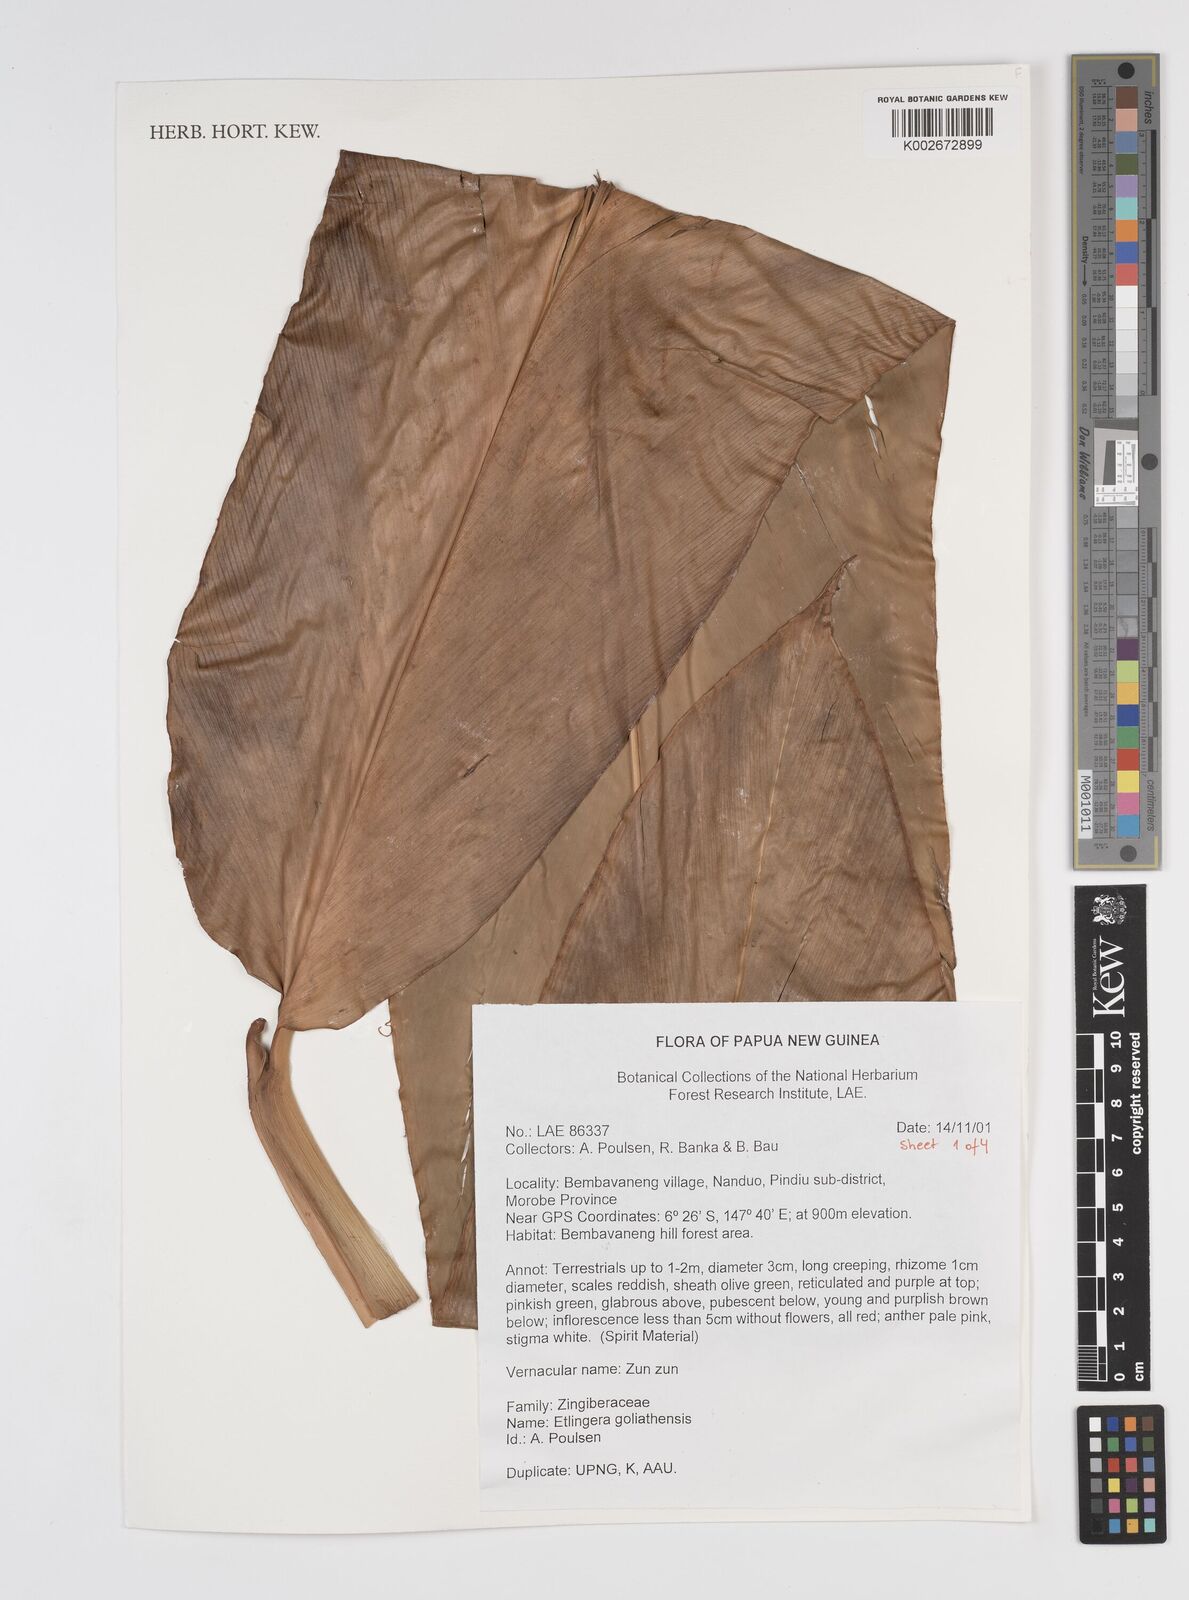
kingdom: Plantae
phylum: Tracheophyta
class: Liliopsida
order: Zingiberales
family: Zingiberaceae
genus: Etlingera
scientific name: Etlingera goliathensis
